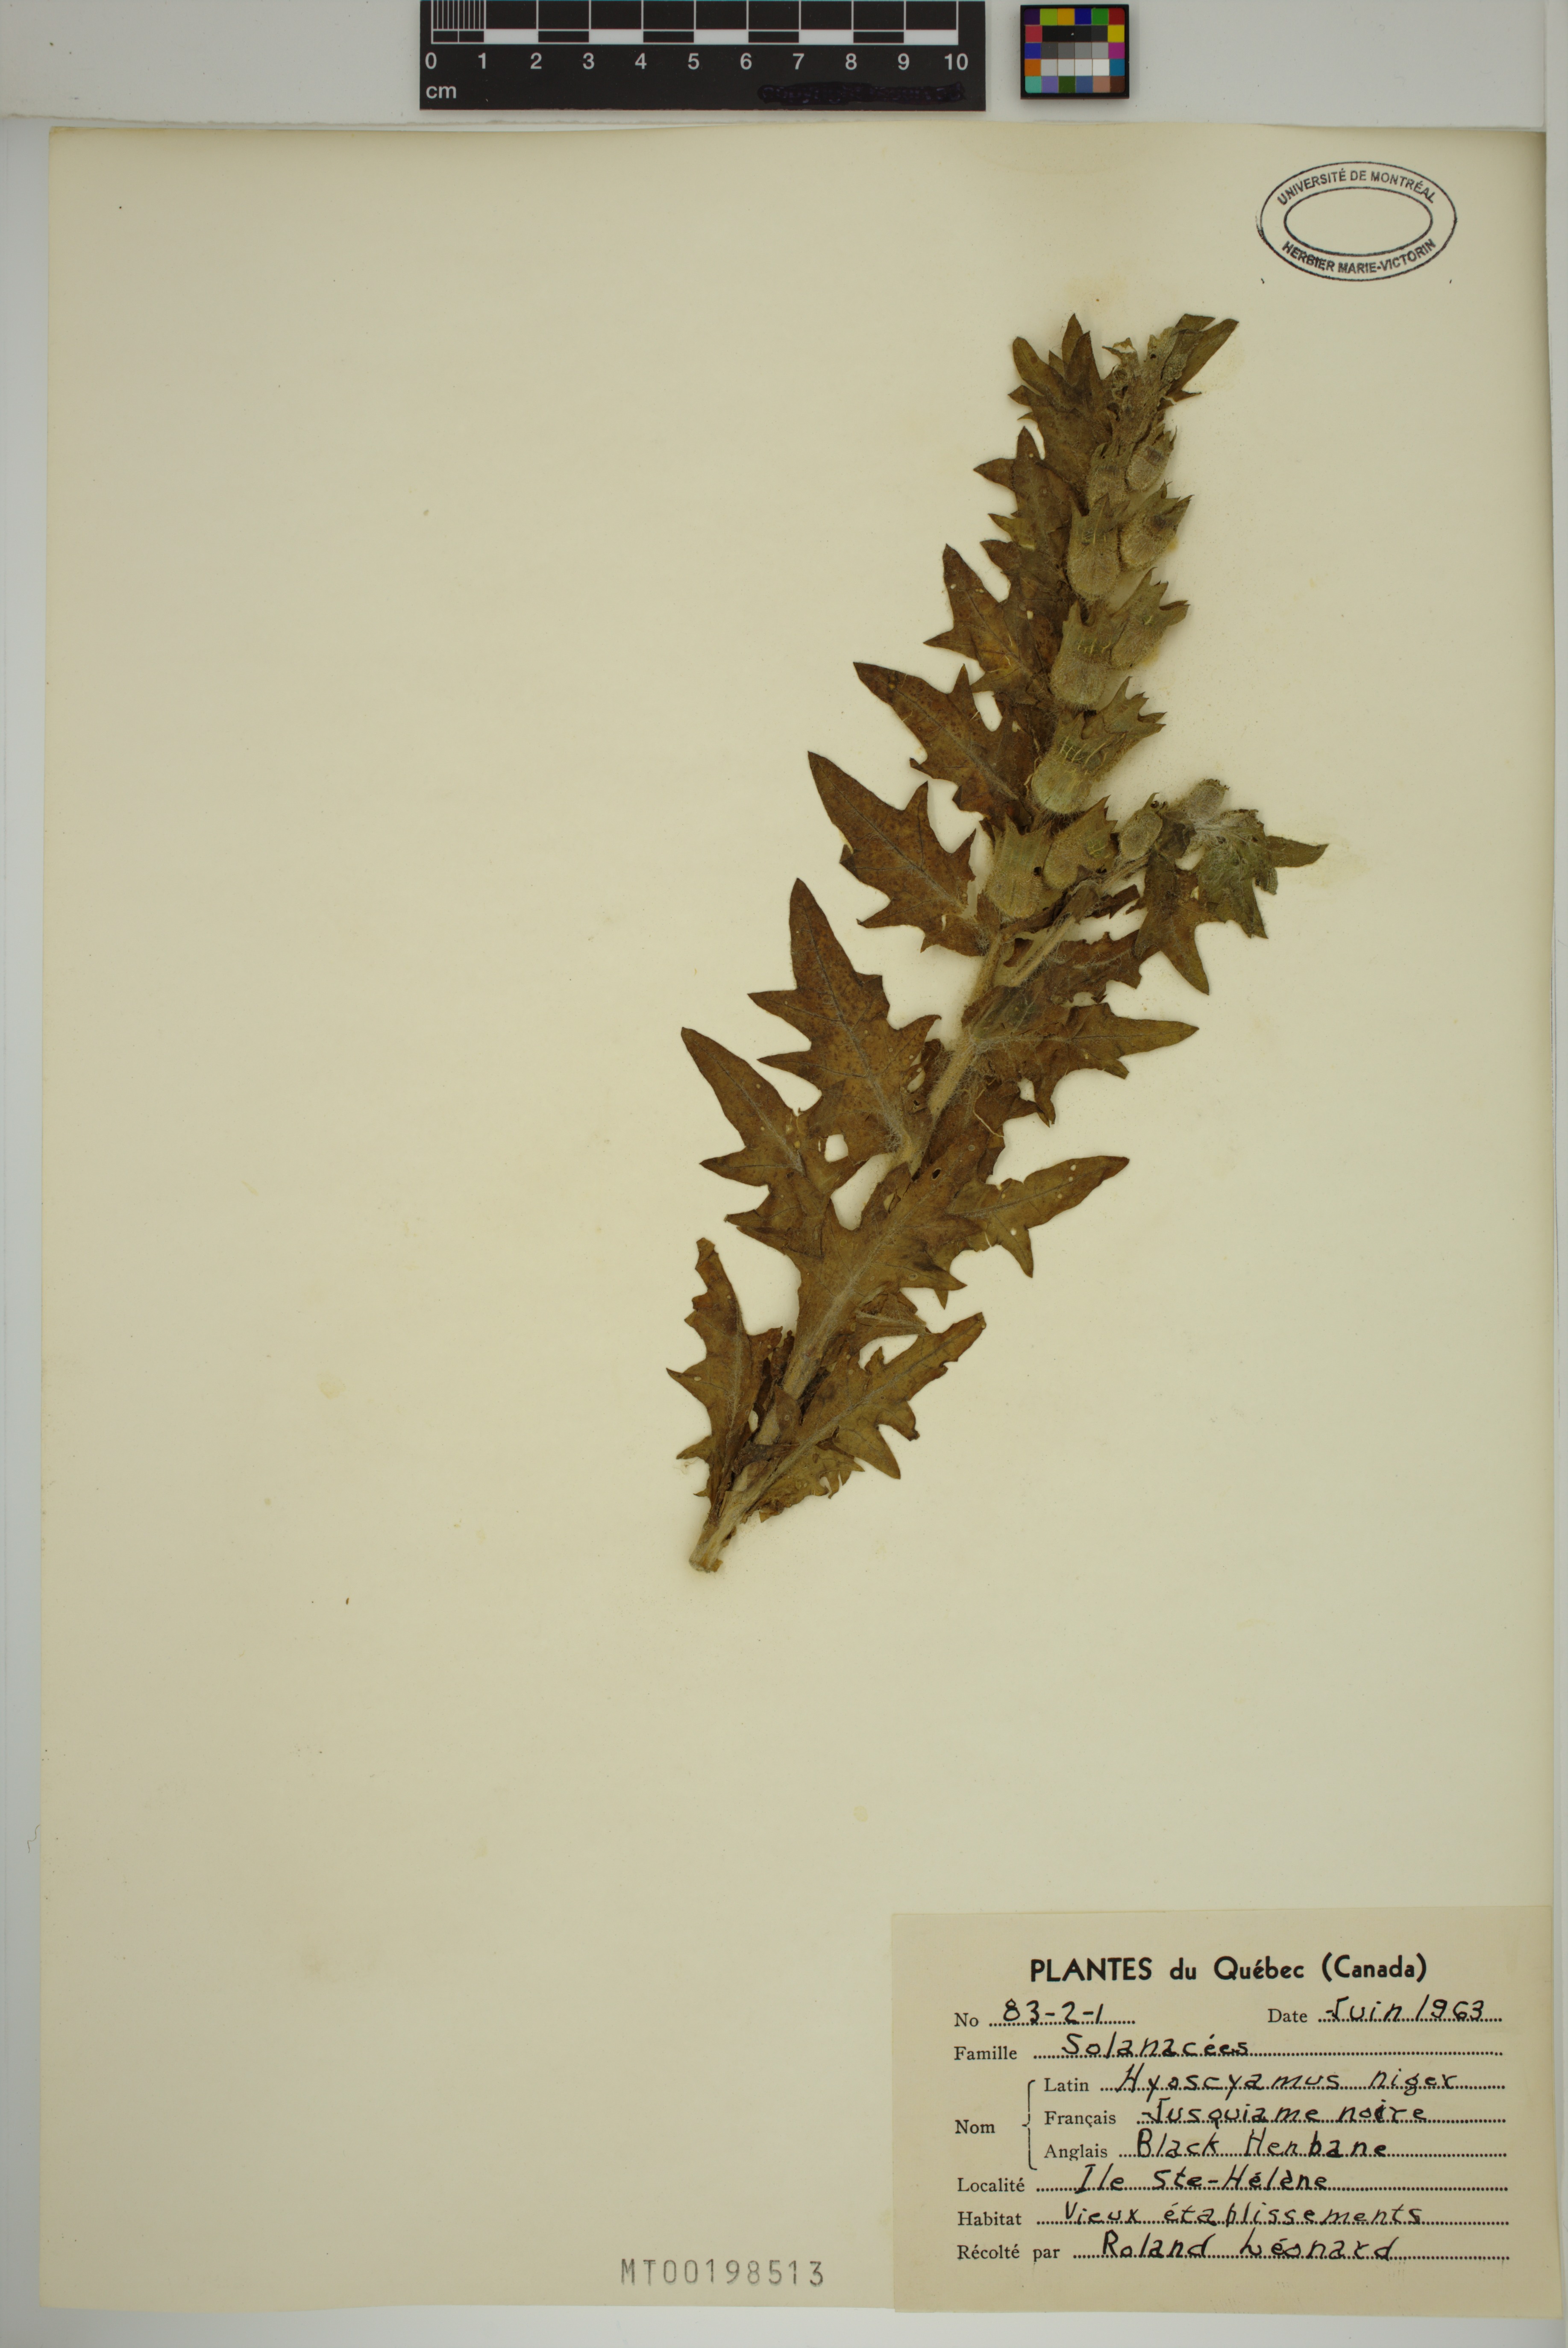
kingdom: Plantae
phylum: Tracheophyta
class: Magnoliopsida
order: Solanales
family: Solanaceae
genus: Hyoscyamus
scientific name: Hyoscyamus niger
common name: Henbane
